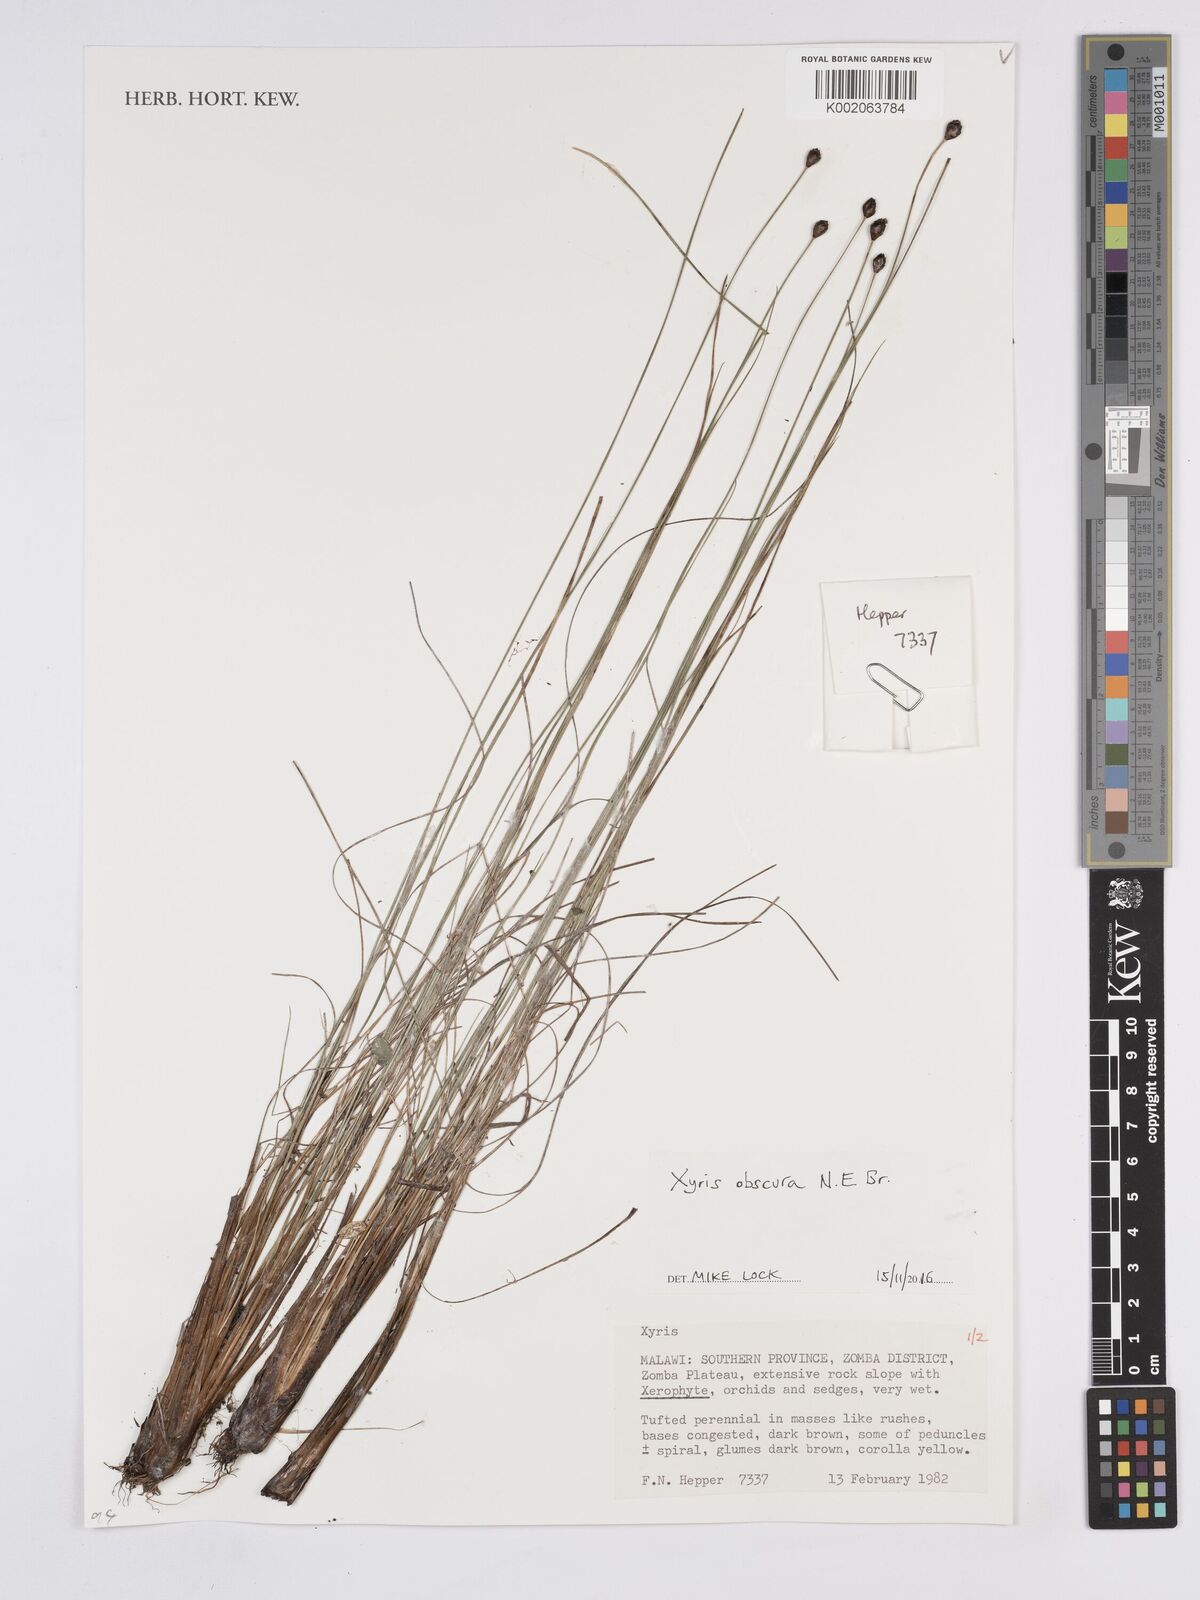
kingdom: Plantae
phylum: Tracheophyta
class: Liliopsida
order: Poales
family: Xyridaceae
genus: Xyris
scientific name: Xyris obscura
